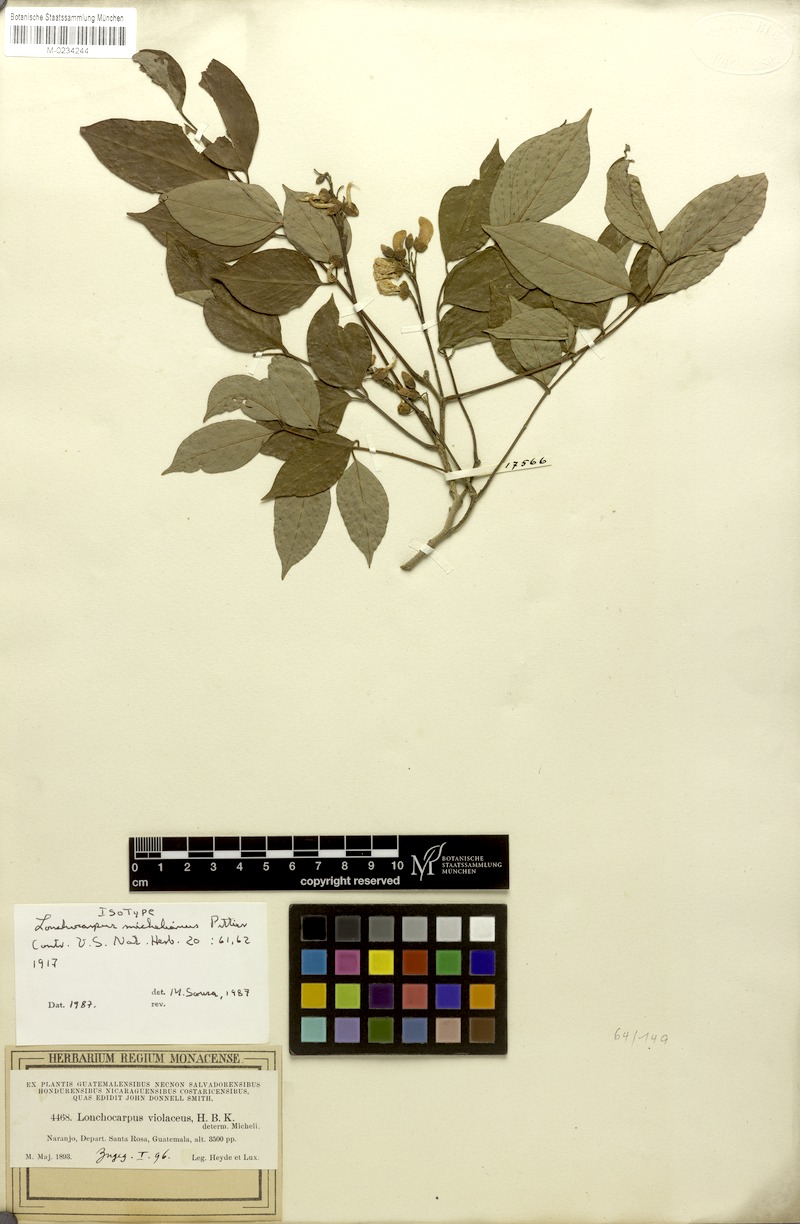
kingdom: Plantae
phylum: Tracheophyta
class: Magnoliopsida
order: Fabales
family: Fabaceae
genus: Lonchocarpus
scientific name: Lonchocarpus michelianus
